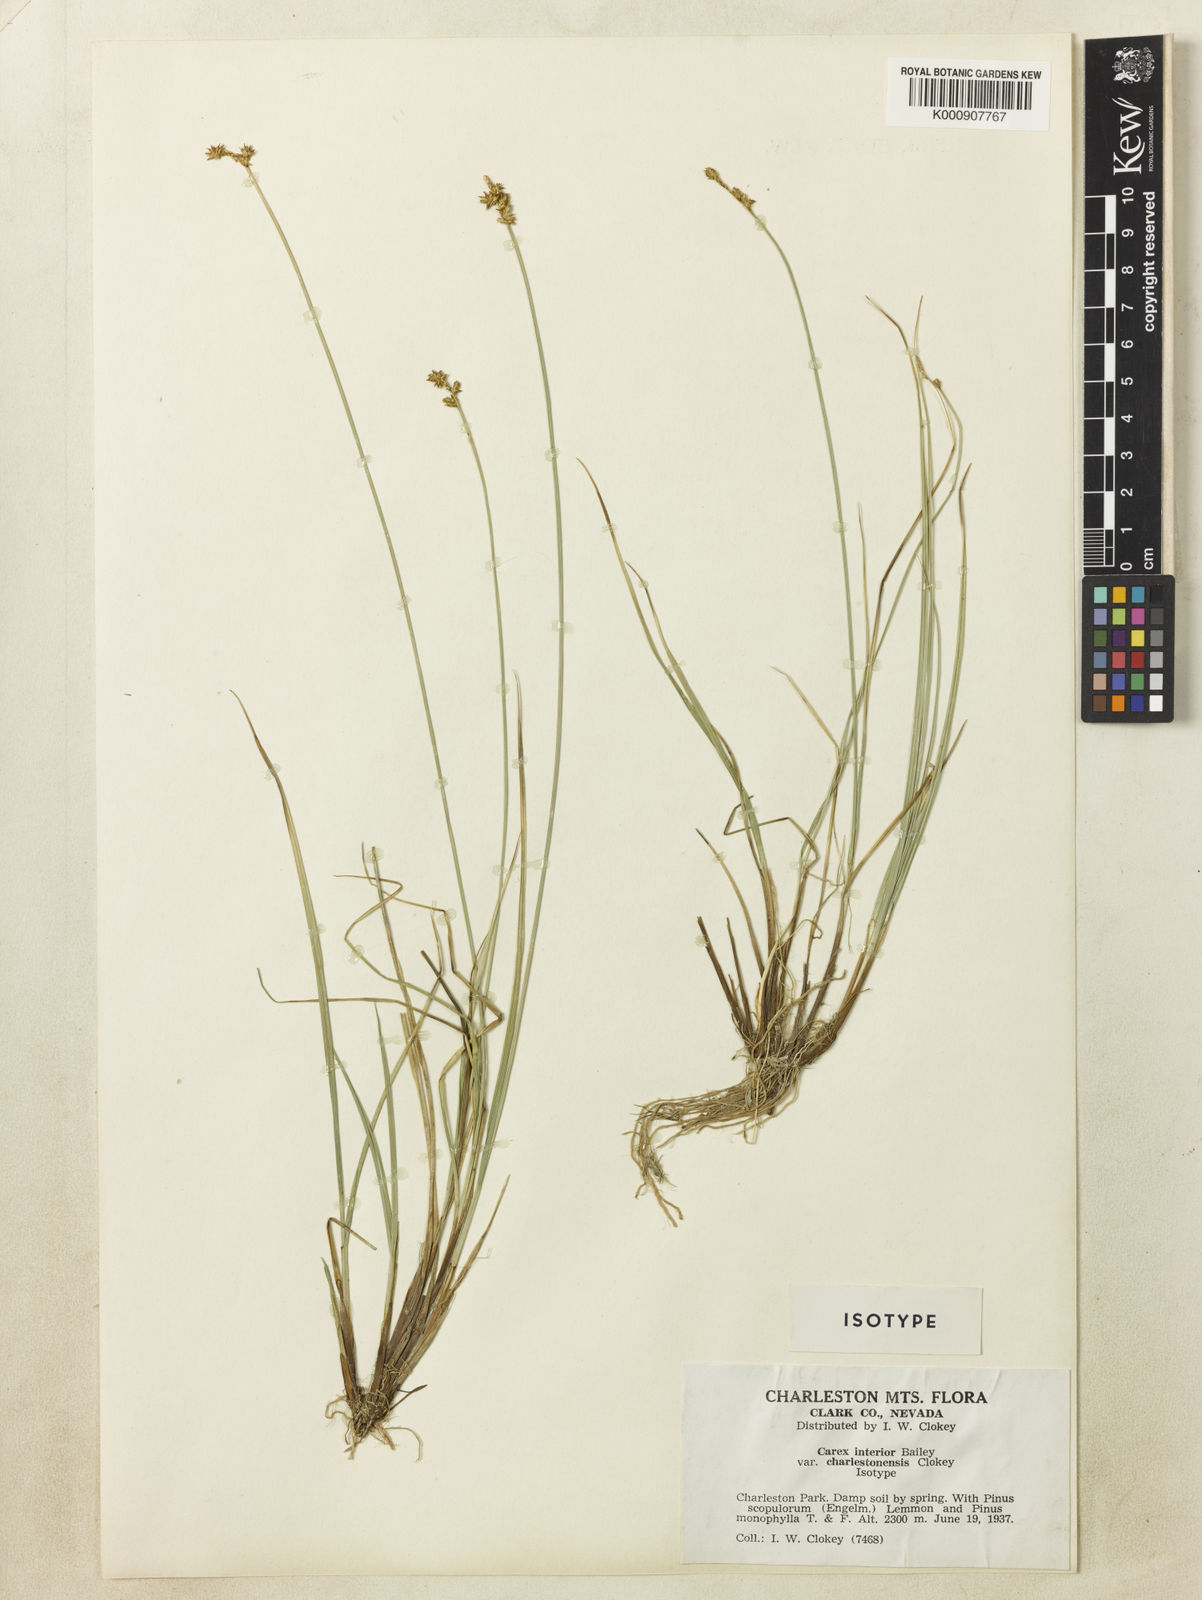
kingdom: Plantae
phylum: Tracheophyta
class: Liliopsida
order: Poales
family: Cyperaceae
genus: Carex
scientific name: Carex interior
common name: Inland sedge
